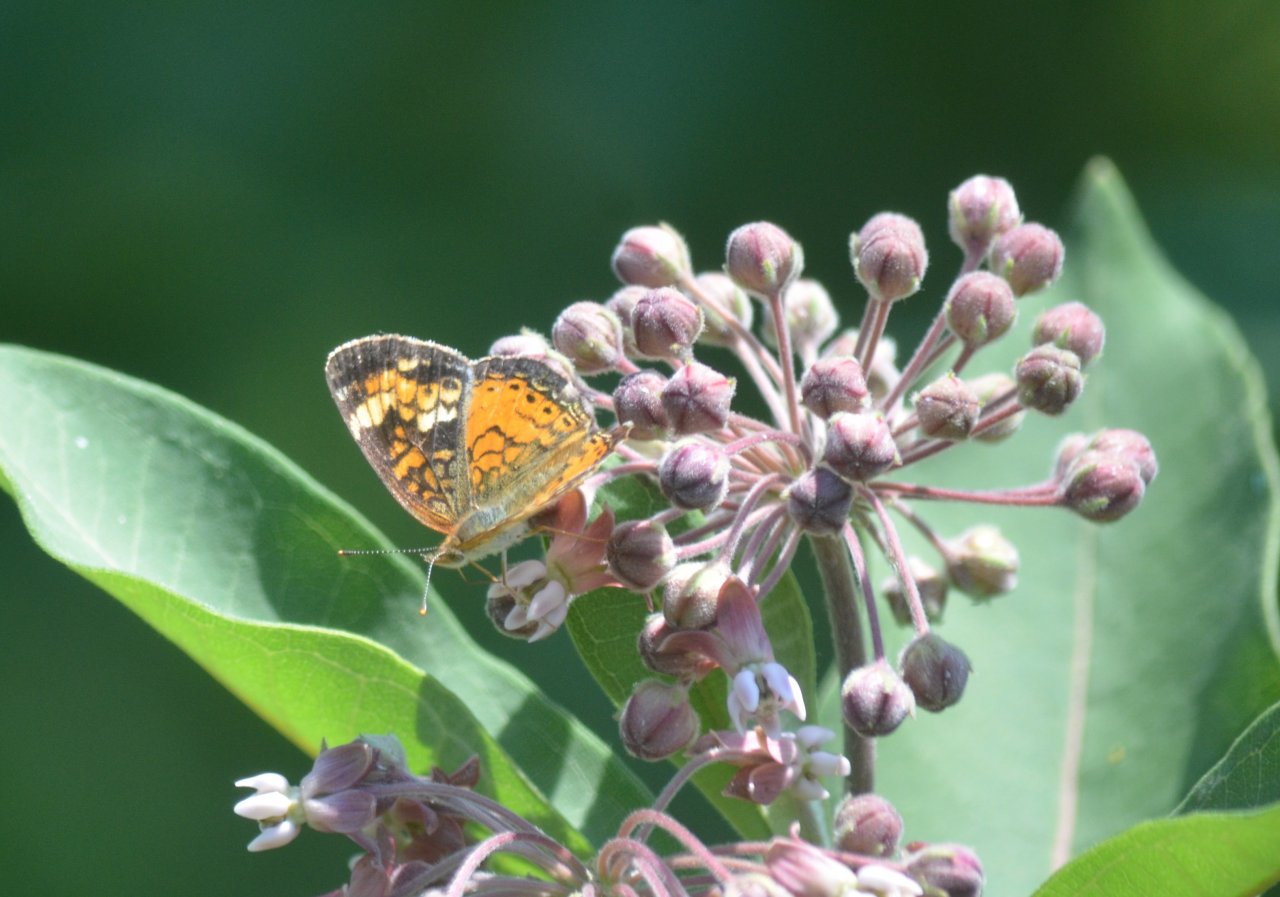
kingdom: Animalia
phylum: Arthropoda
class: Insecta
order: Lepidoptera
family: Nymphalidae
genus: Phyciodes
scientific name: Phyciodes tharos
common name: Northern Crescent
